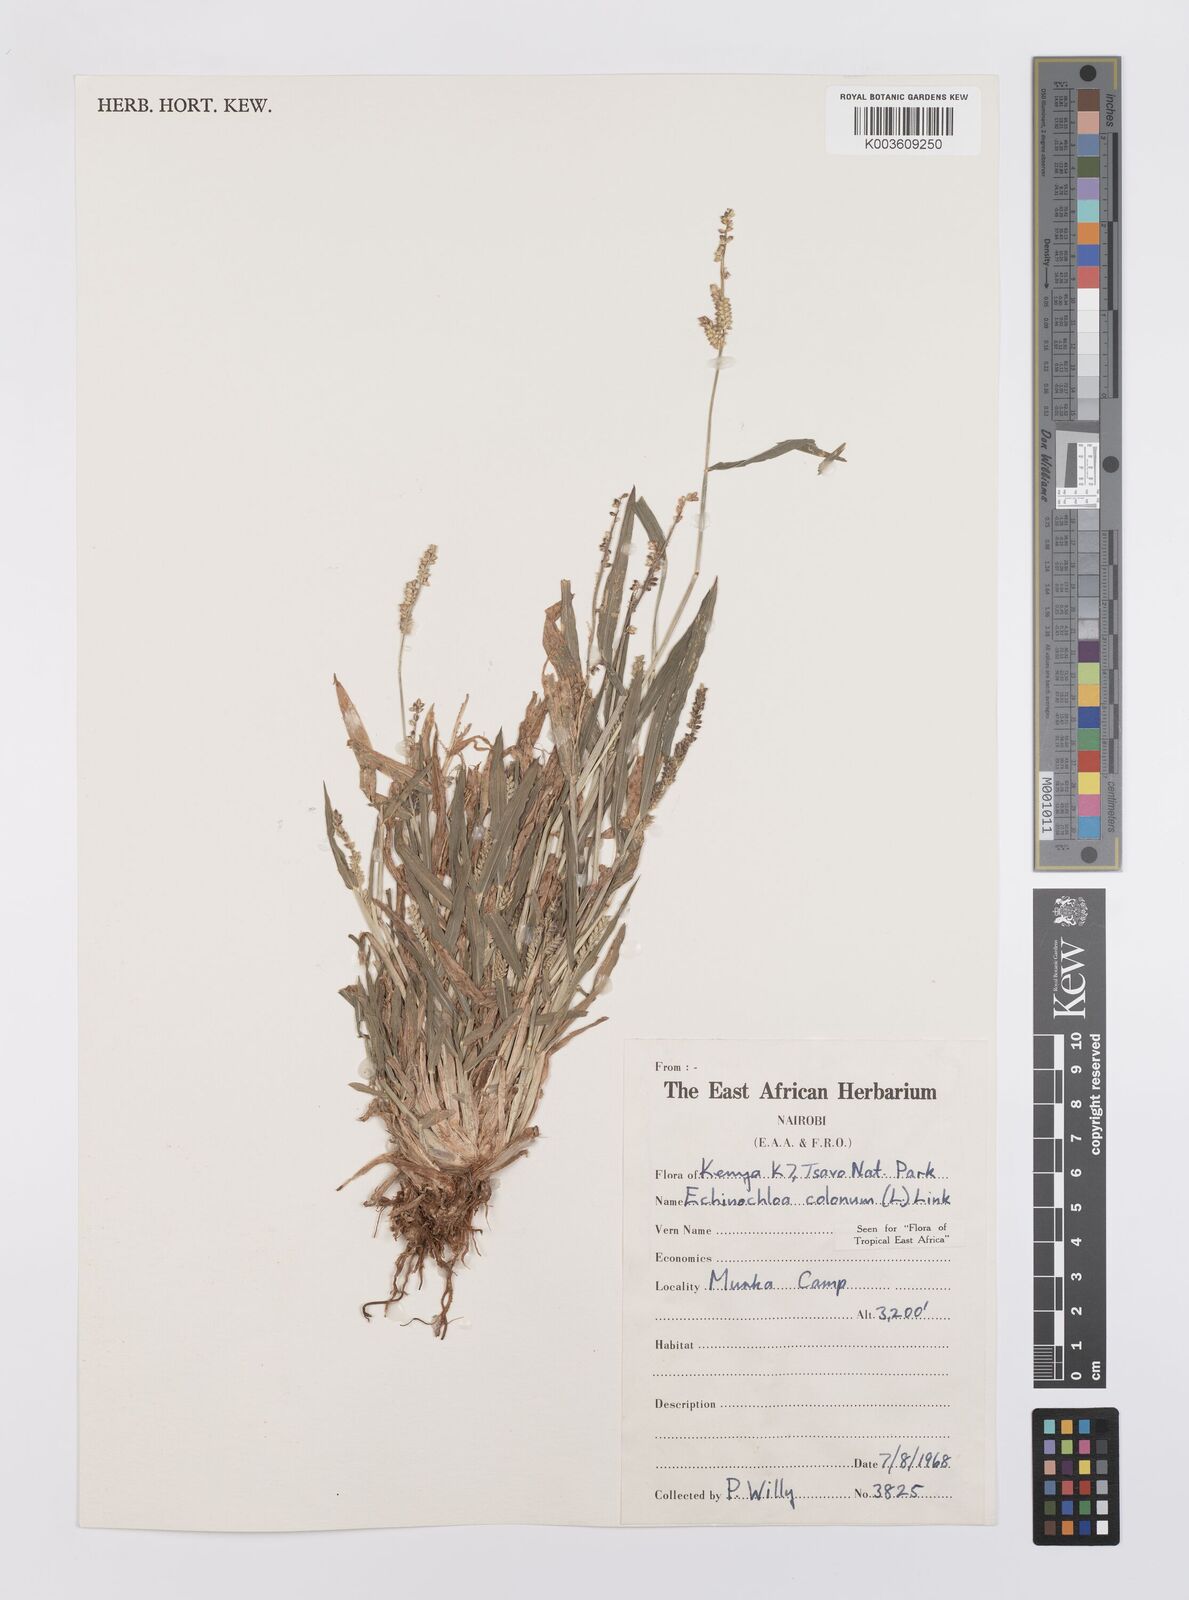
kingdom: Plantae
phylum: Tracheophyta
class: Liliopsida
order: Poales
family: Poaceae
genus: Echinochloa
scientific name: Echinochloa colonum
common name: Jungle rice
